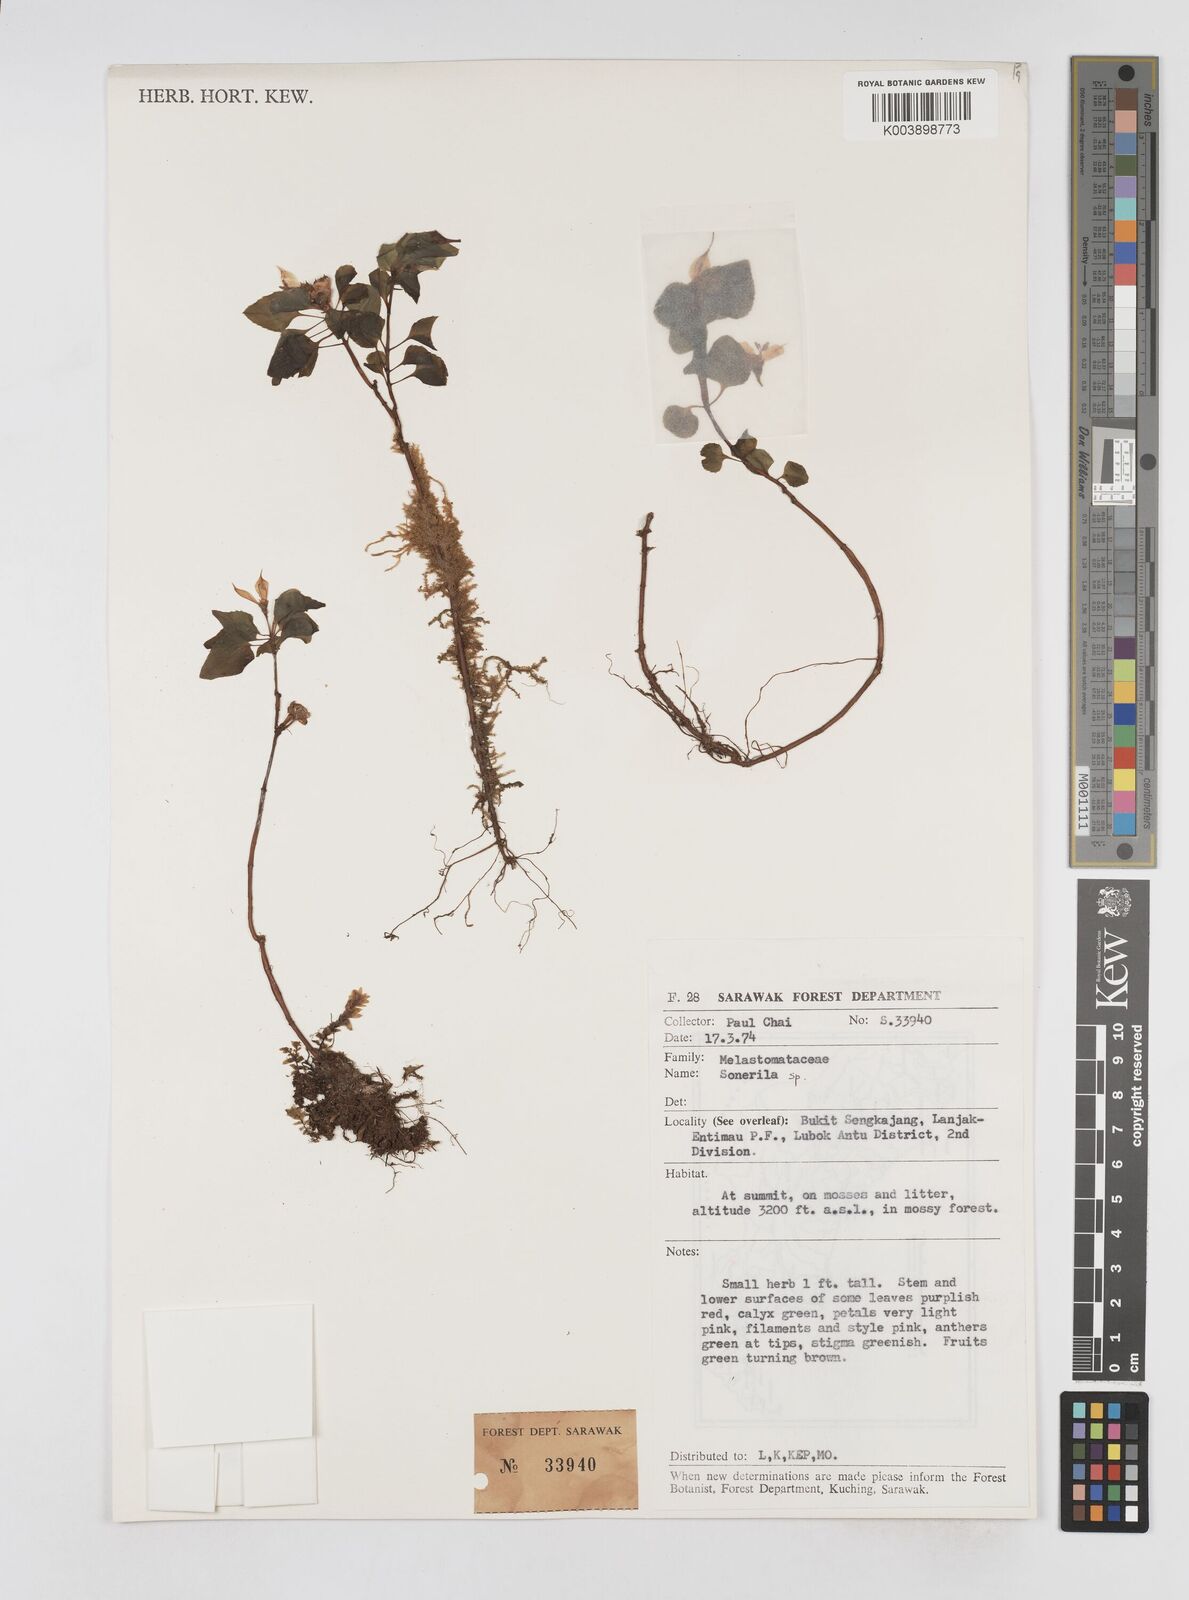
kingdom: Plantae
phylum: Tracheophyta
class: Magnoliopsida
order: Myrtales
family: Melastomataceae
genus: Sonerila
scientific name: Sonerila
